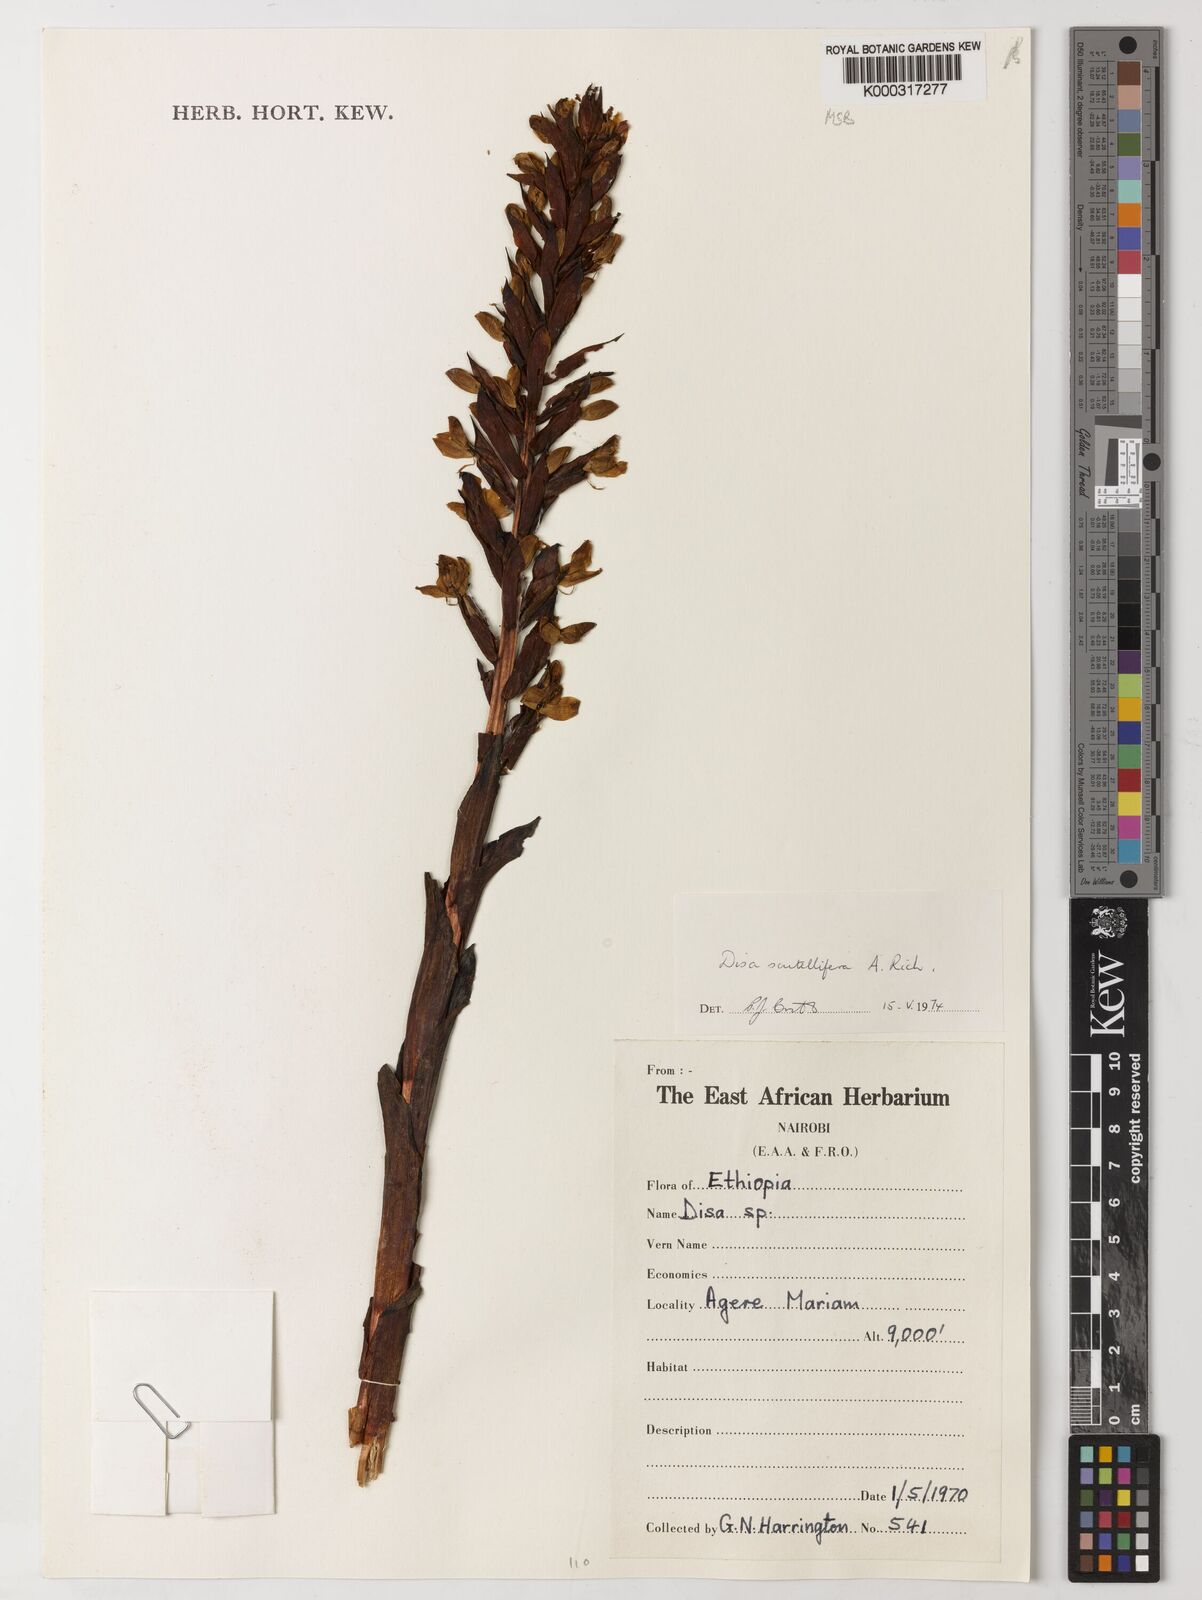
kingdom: Plantae
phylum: Tracheophyta
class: Liliopsida
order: Asparagales
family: Orchidaceae
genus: Disa
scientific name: Disa scutellifera
